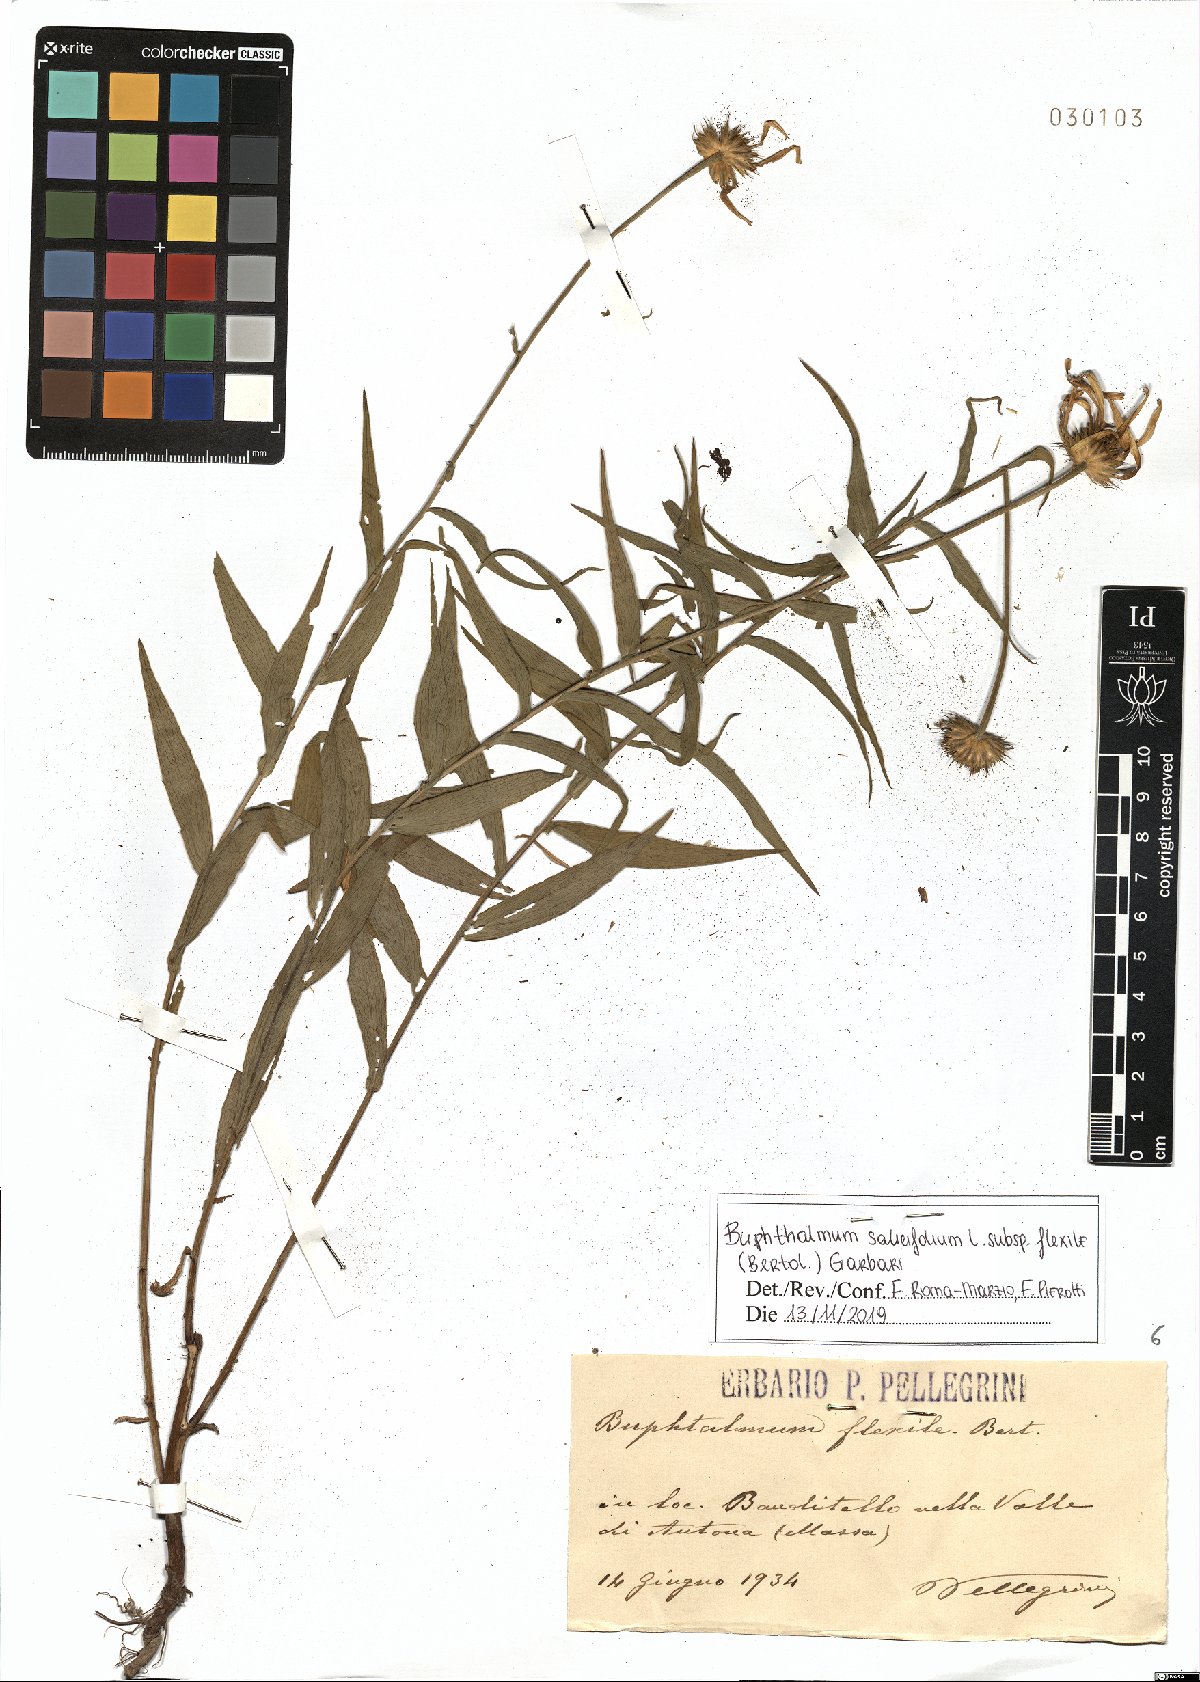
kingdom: Plantae
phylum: Tracheophyta
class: Magnoliopsida
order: Asterales
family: Asteraceae
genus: Buphthalmum
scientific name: Buphthalmum salicifolium
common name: Willow-leaved yellow-oxeye
